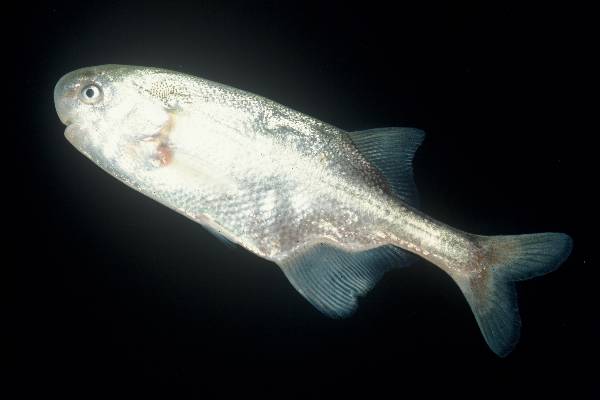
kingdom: Animalia
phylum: Chordata
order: Osteoglossiformes
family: Mormyridae
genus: Petrocephalus
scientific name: Petrocephalus wesselsi
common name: Southern churchill
